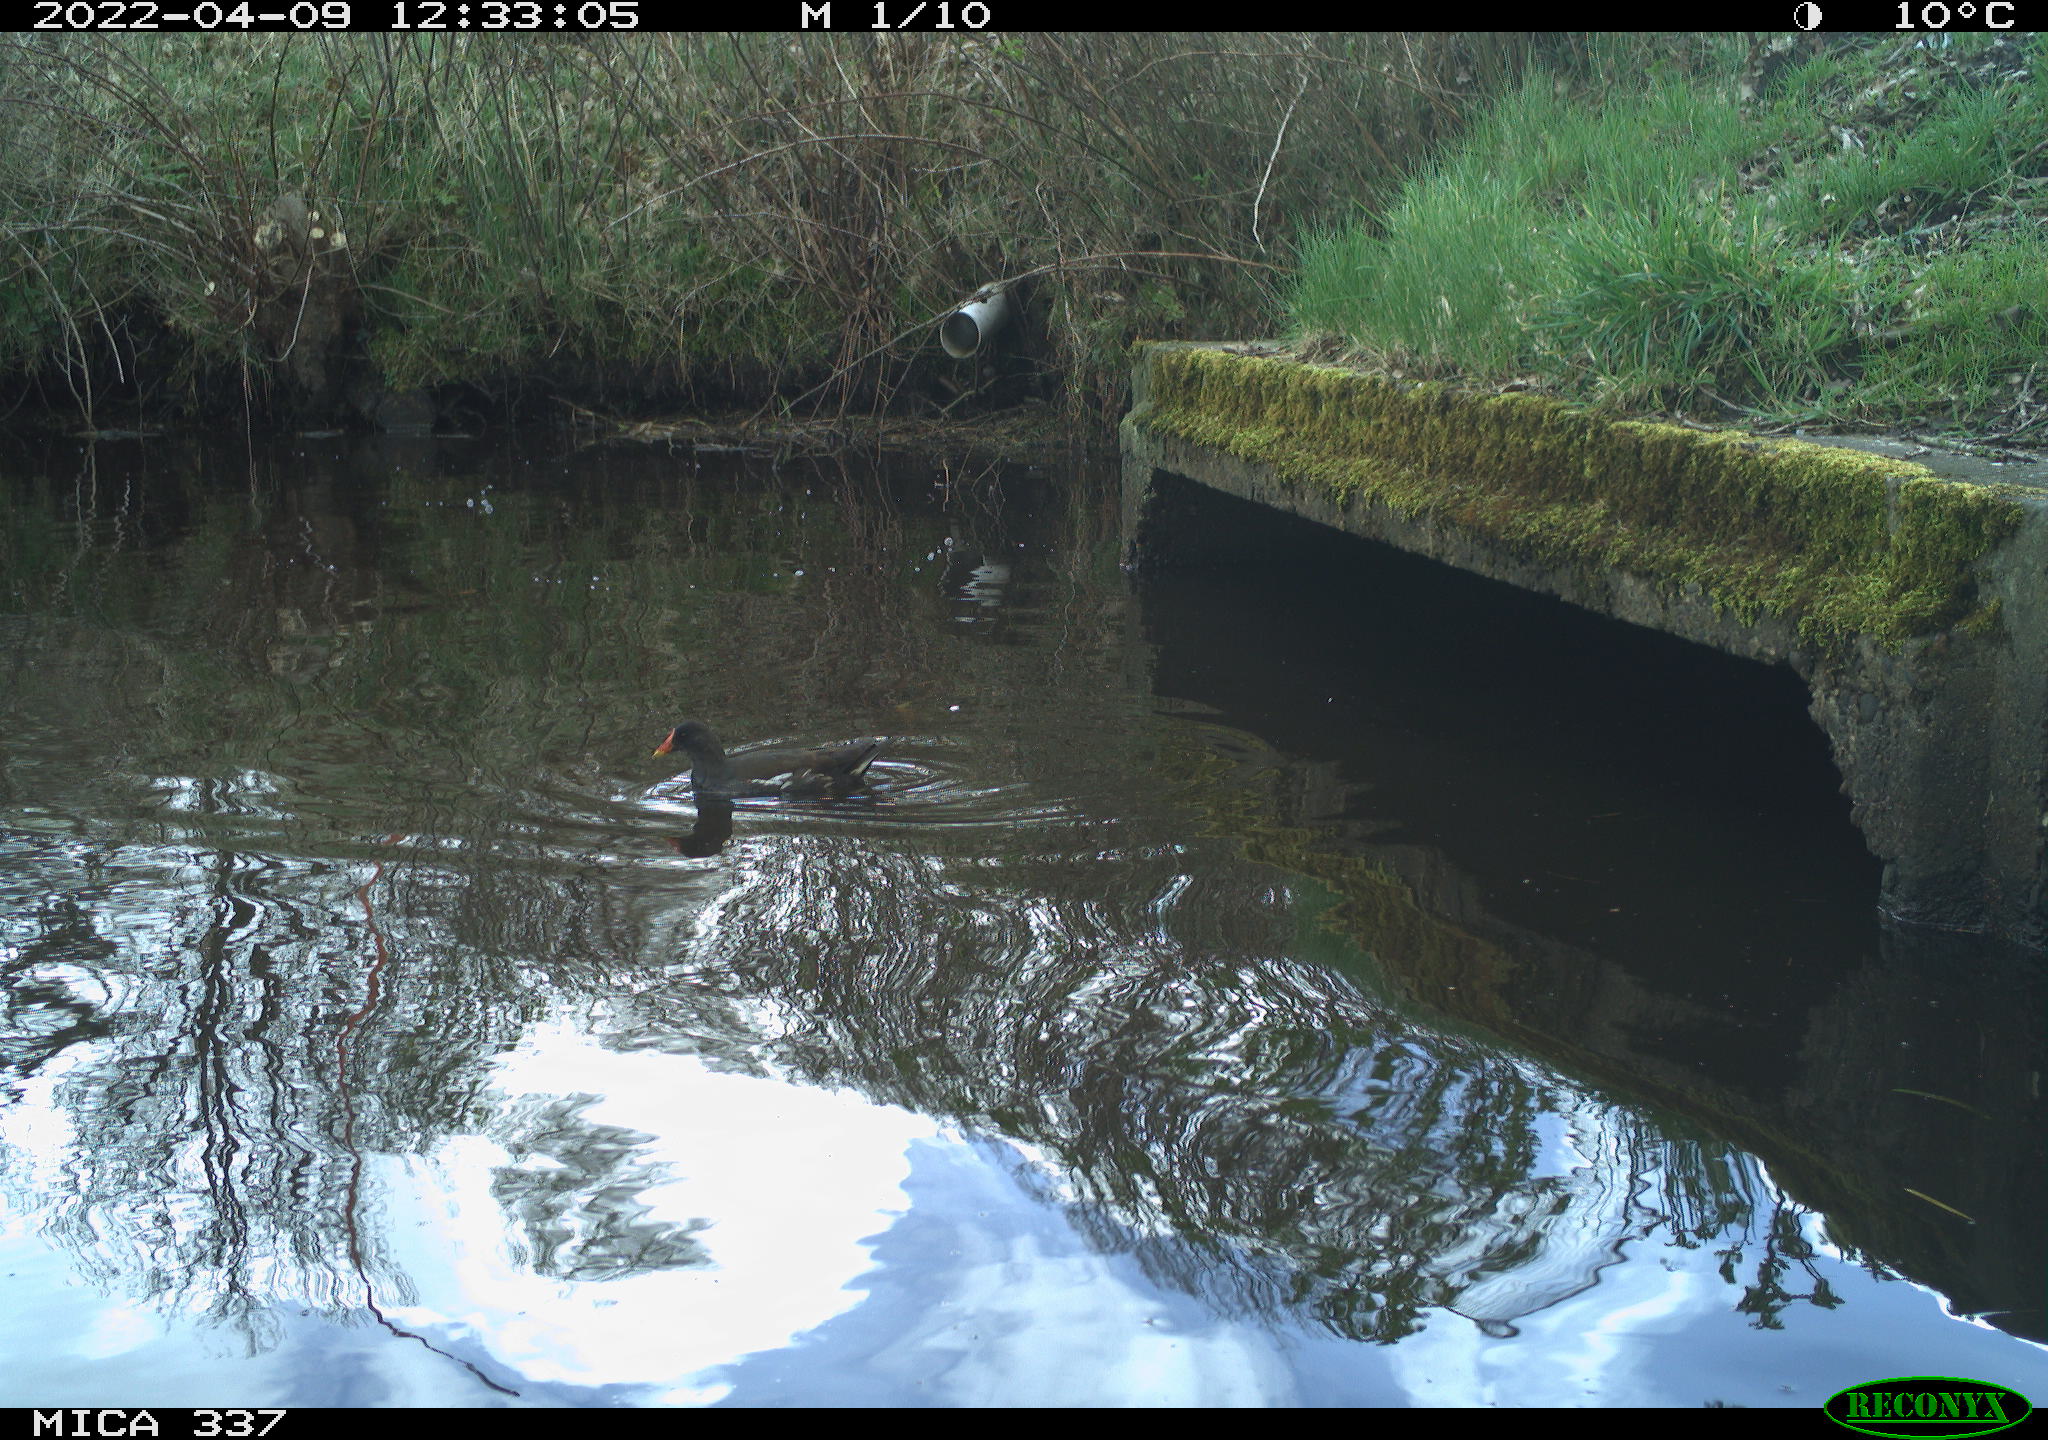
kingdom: Animalia
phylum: Chordata
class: Aves
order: Gruiformes
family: Rallidae
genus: Gallinula
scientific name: Gallinula chloropus
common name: Common moorhen
